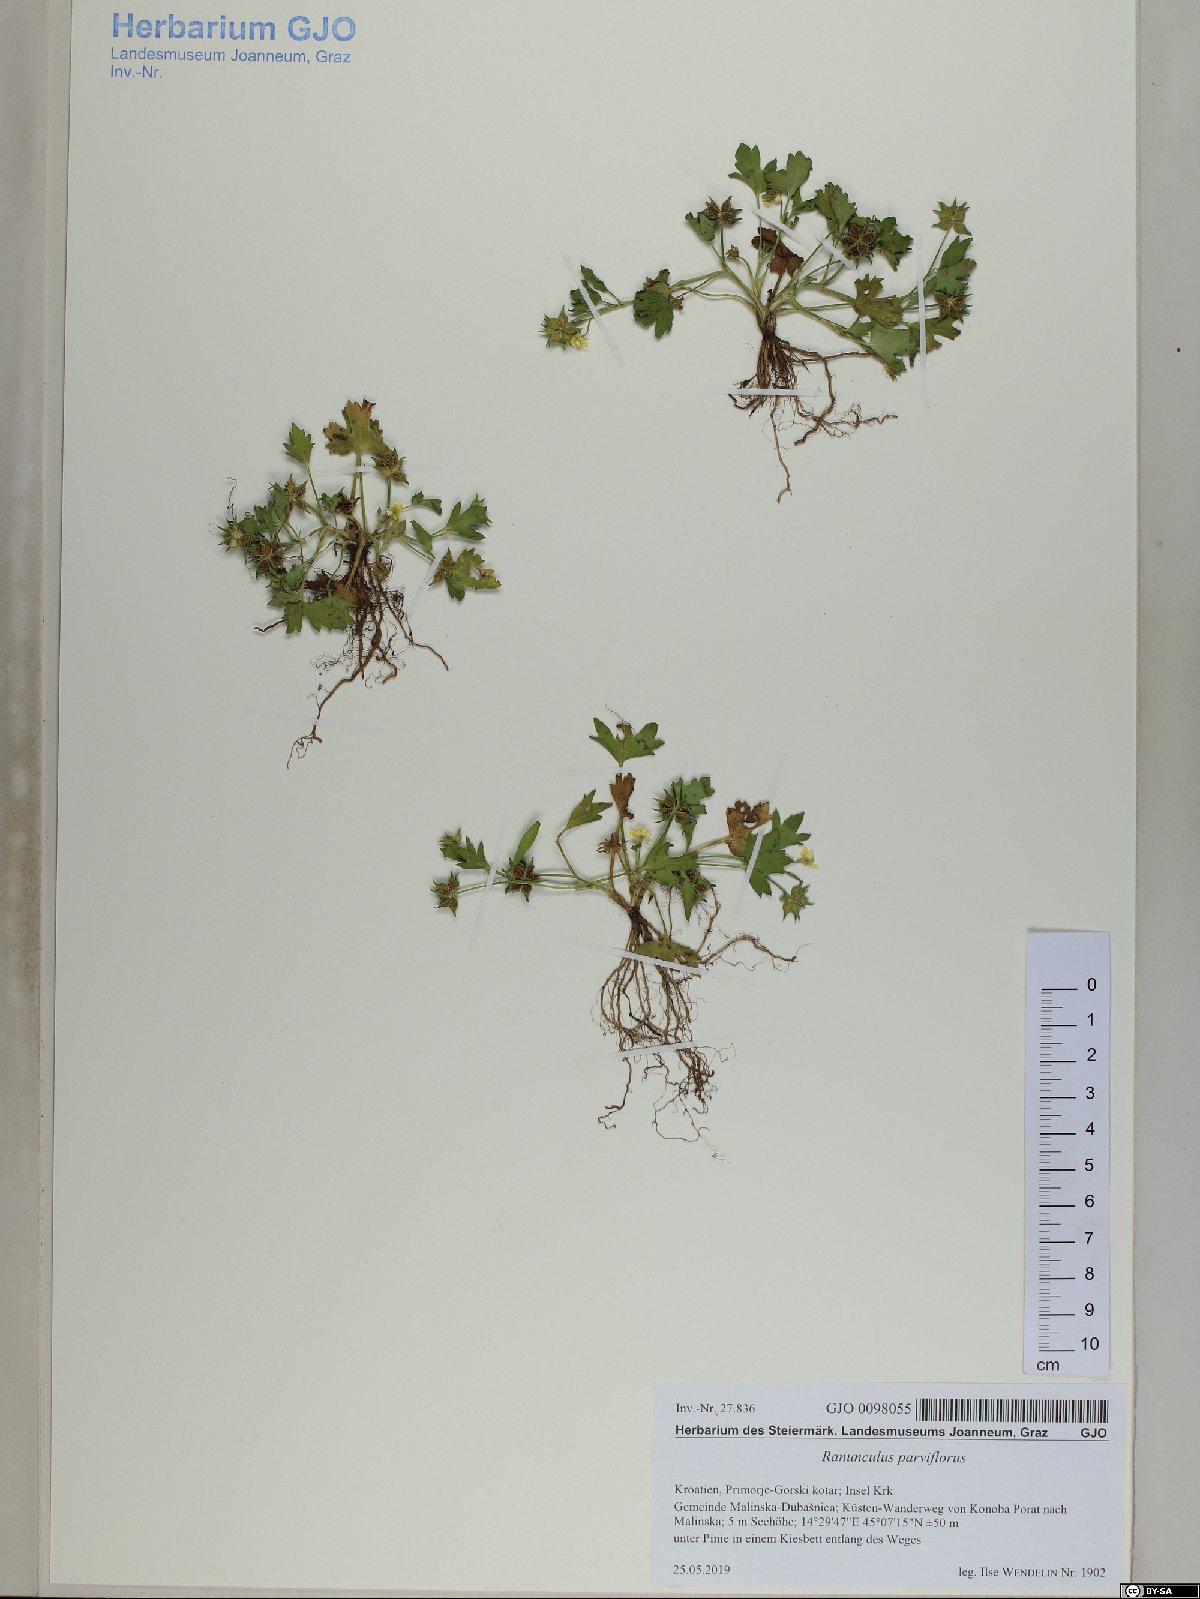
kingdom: Plantae
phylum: Tracheophyta
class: Magnoliopsida
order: Ranunculales
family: Ranunculaceae
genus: Ranunculus
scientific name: Ranunculus parviflorus
